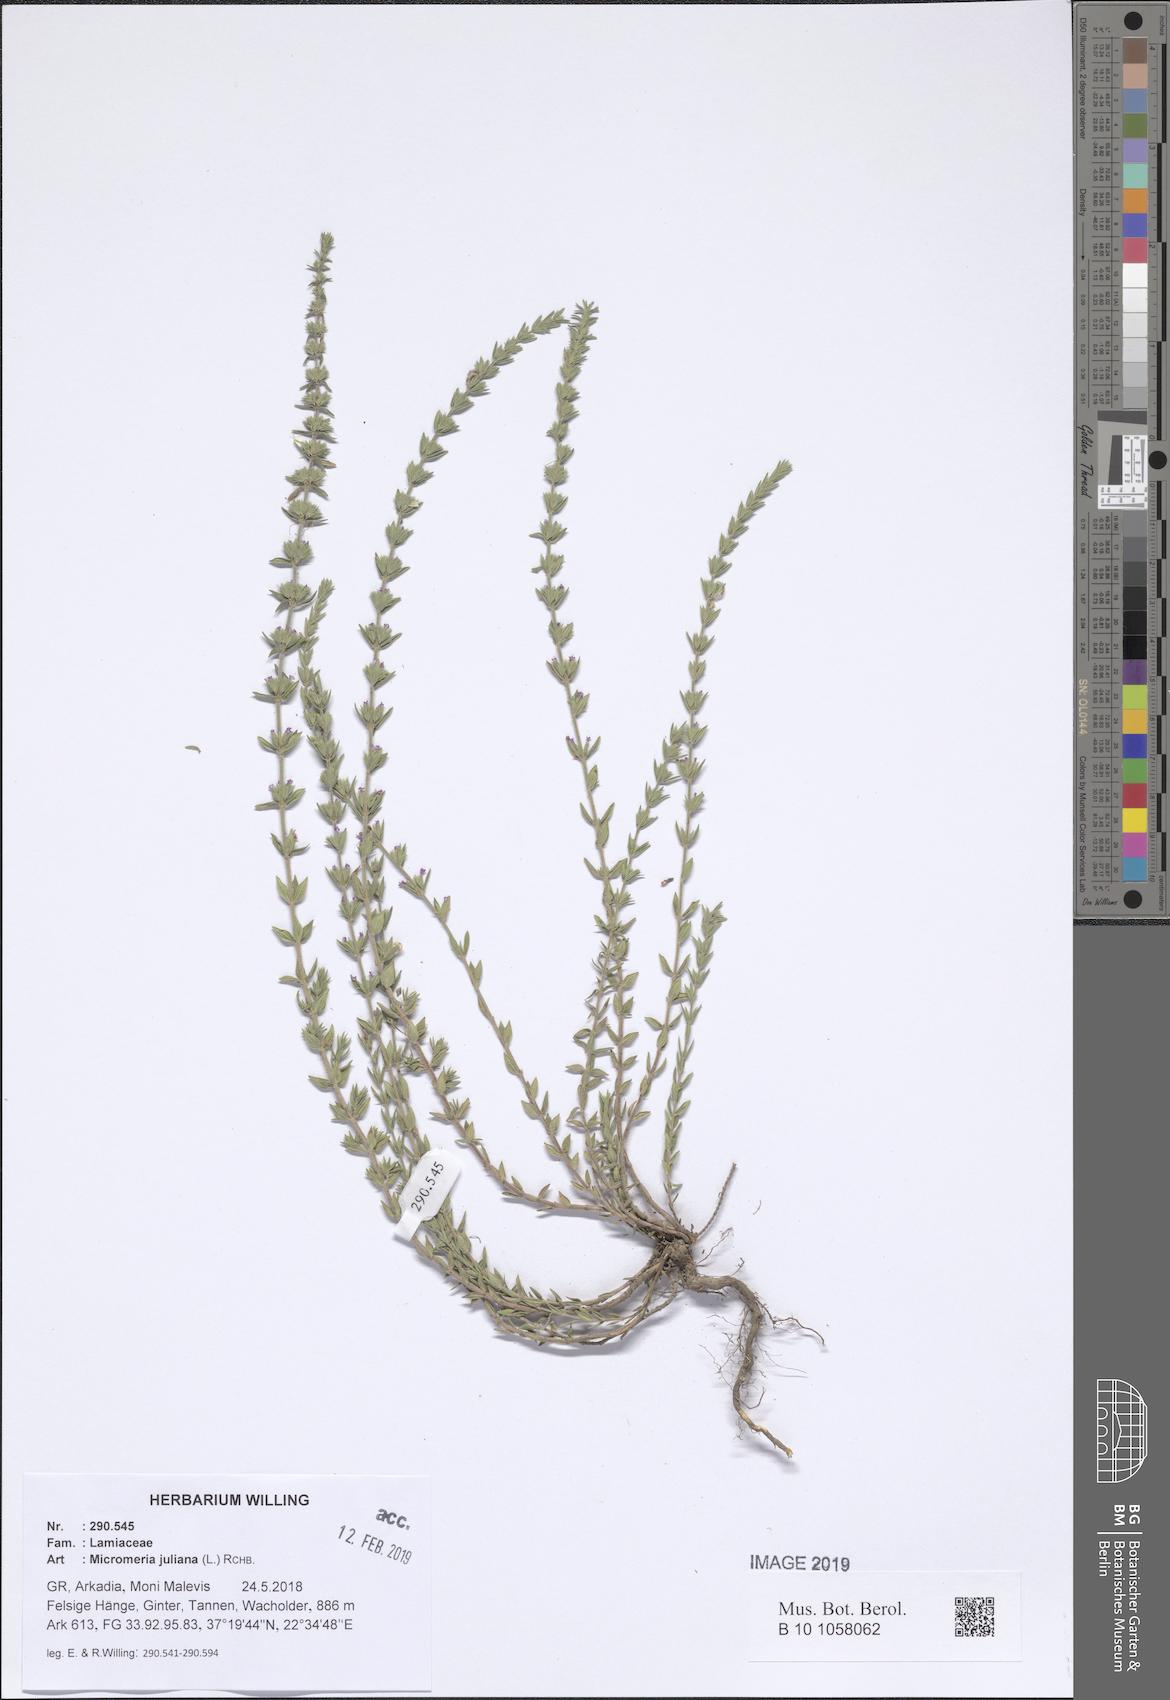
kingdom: Plantae
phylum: Tracheophyta
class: Magnoliopsida
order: Lamiales
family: Lamiaceae
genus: Micromeria
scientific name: Micromeria juliana
